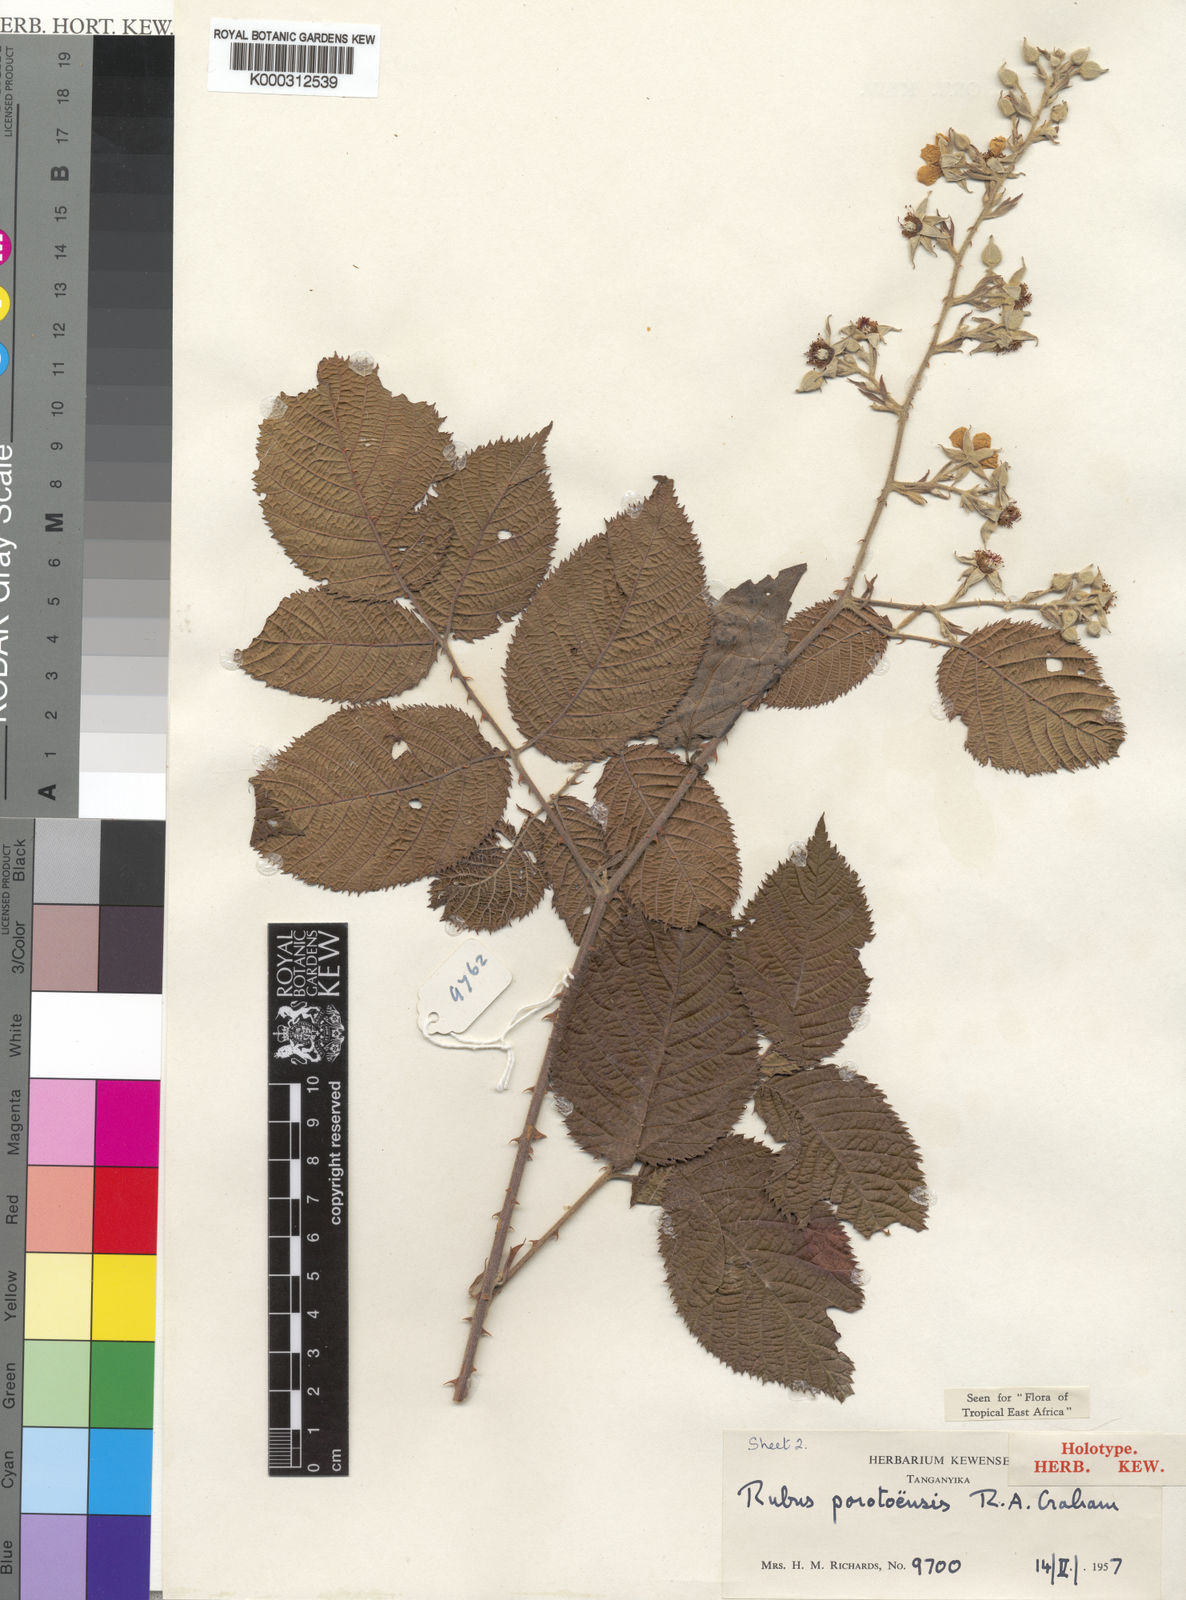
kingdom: Plantae
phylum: Tracheophyta
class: Magnoliopsida
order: Rosales
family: Rosaceae
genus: Rubus
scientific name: Rubus porotoensis
